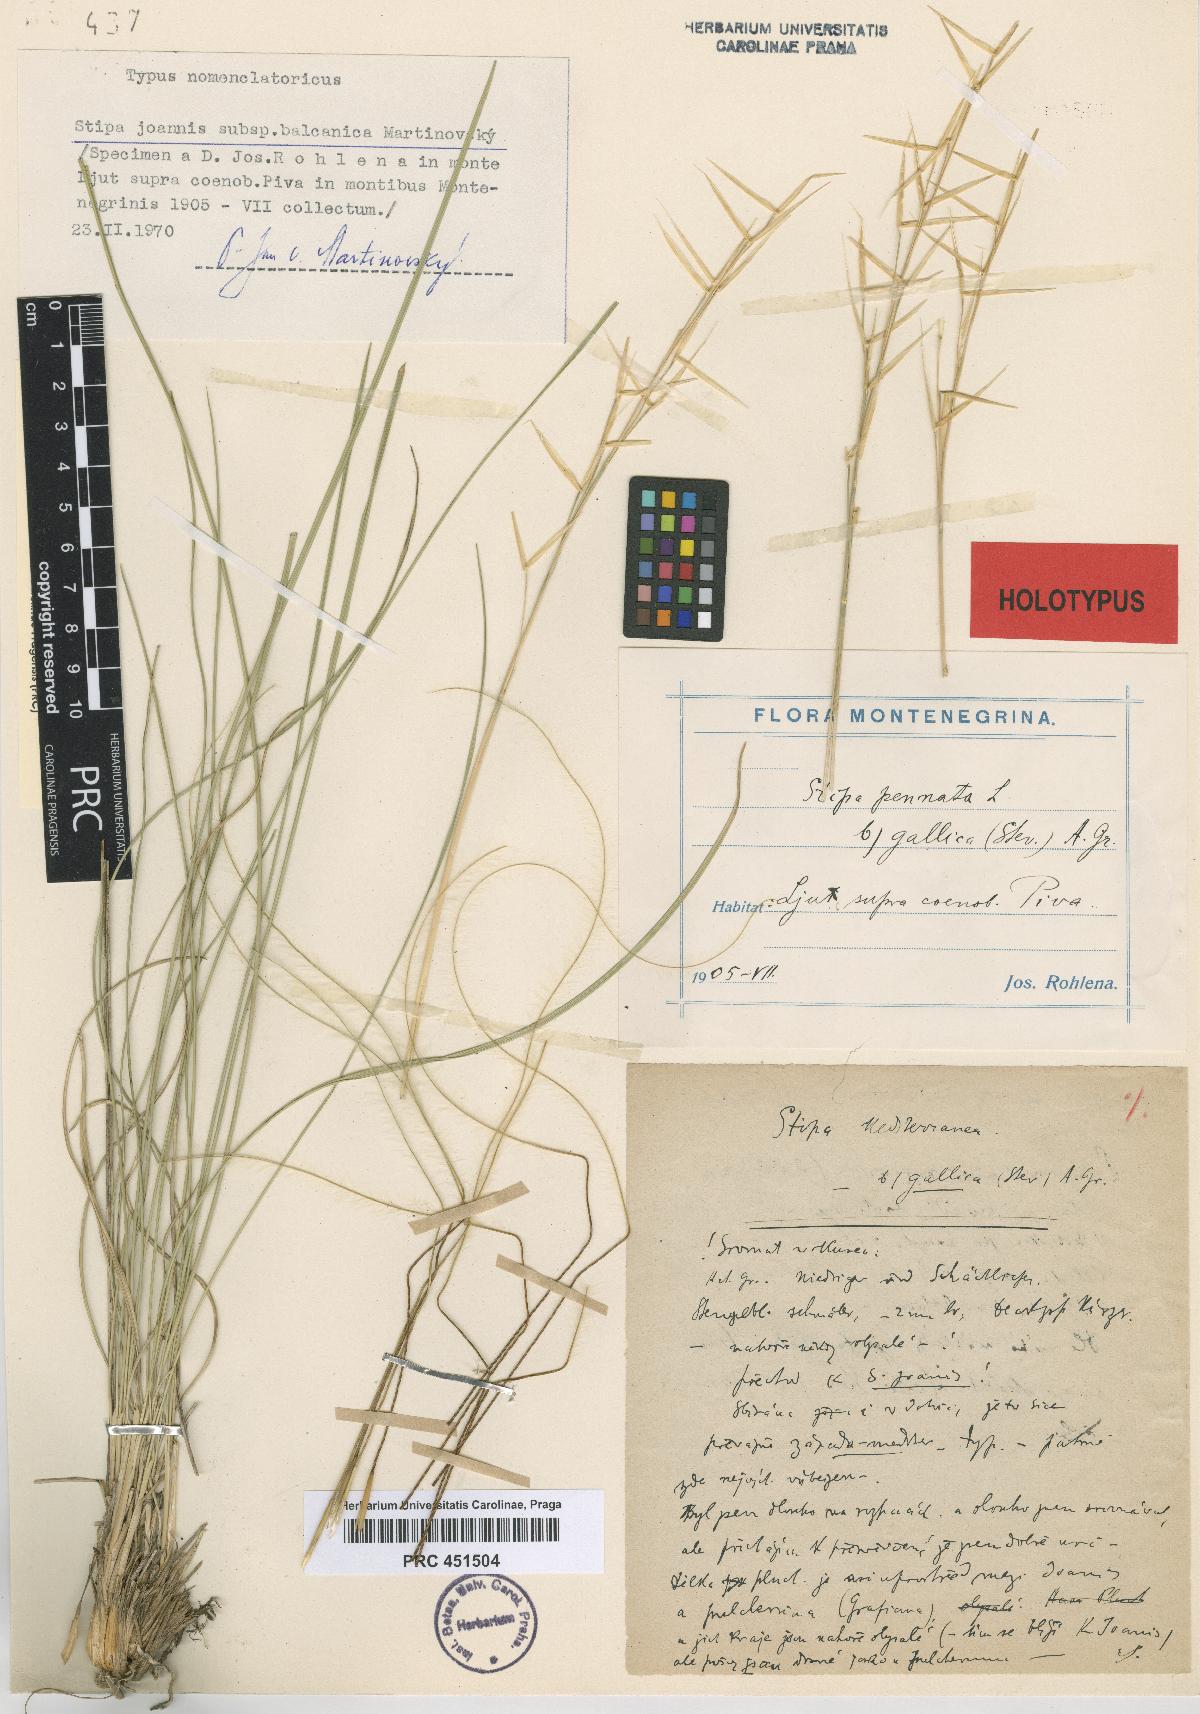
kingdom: Plantae
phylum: Tracheophyta
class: Liliopsida
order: Poales
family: Poaceae
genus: Stipa
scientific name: Stipa pennata
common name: European feather grass
